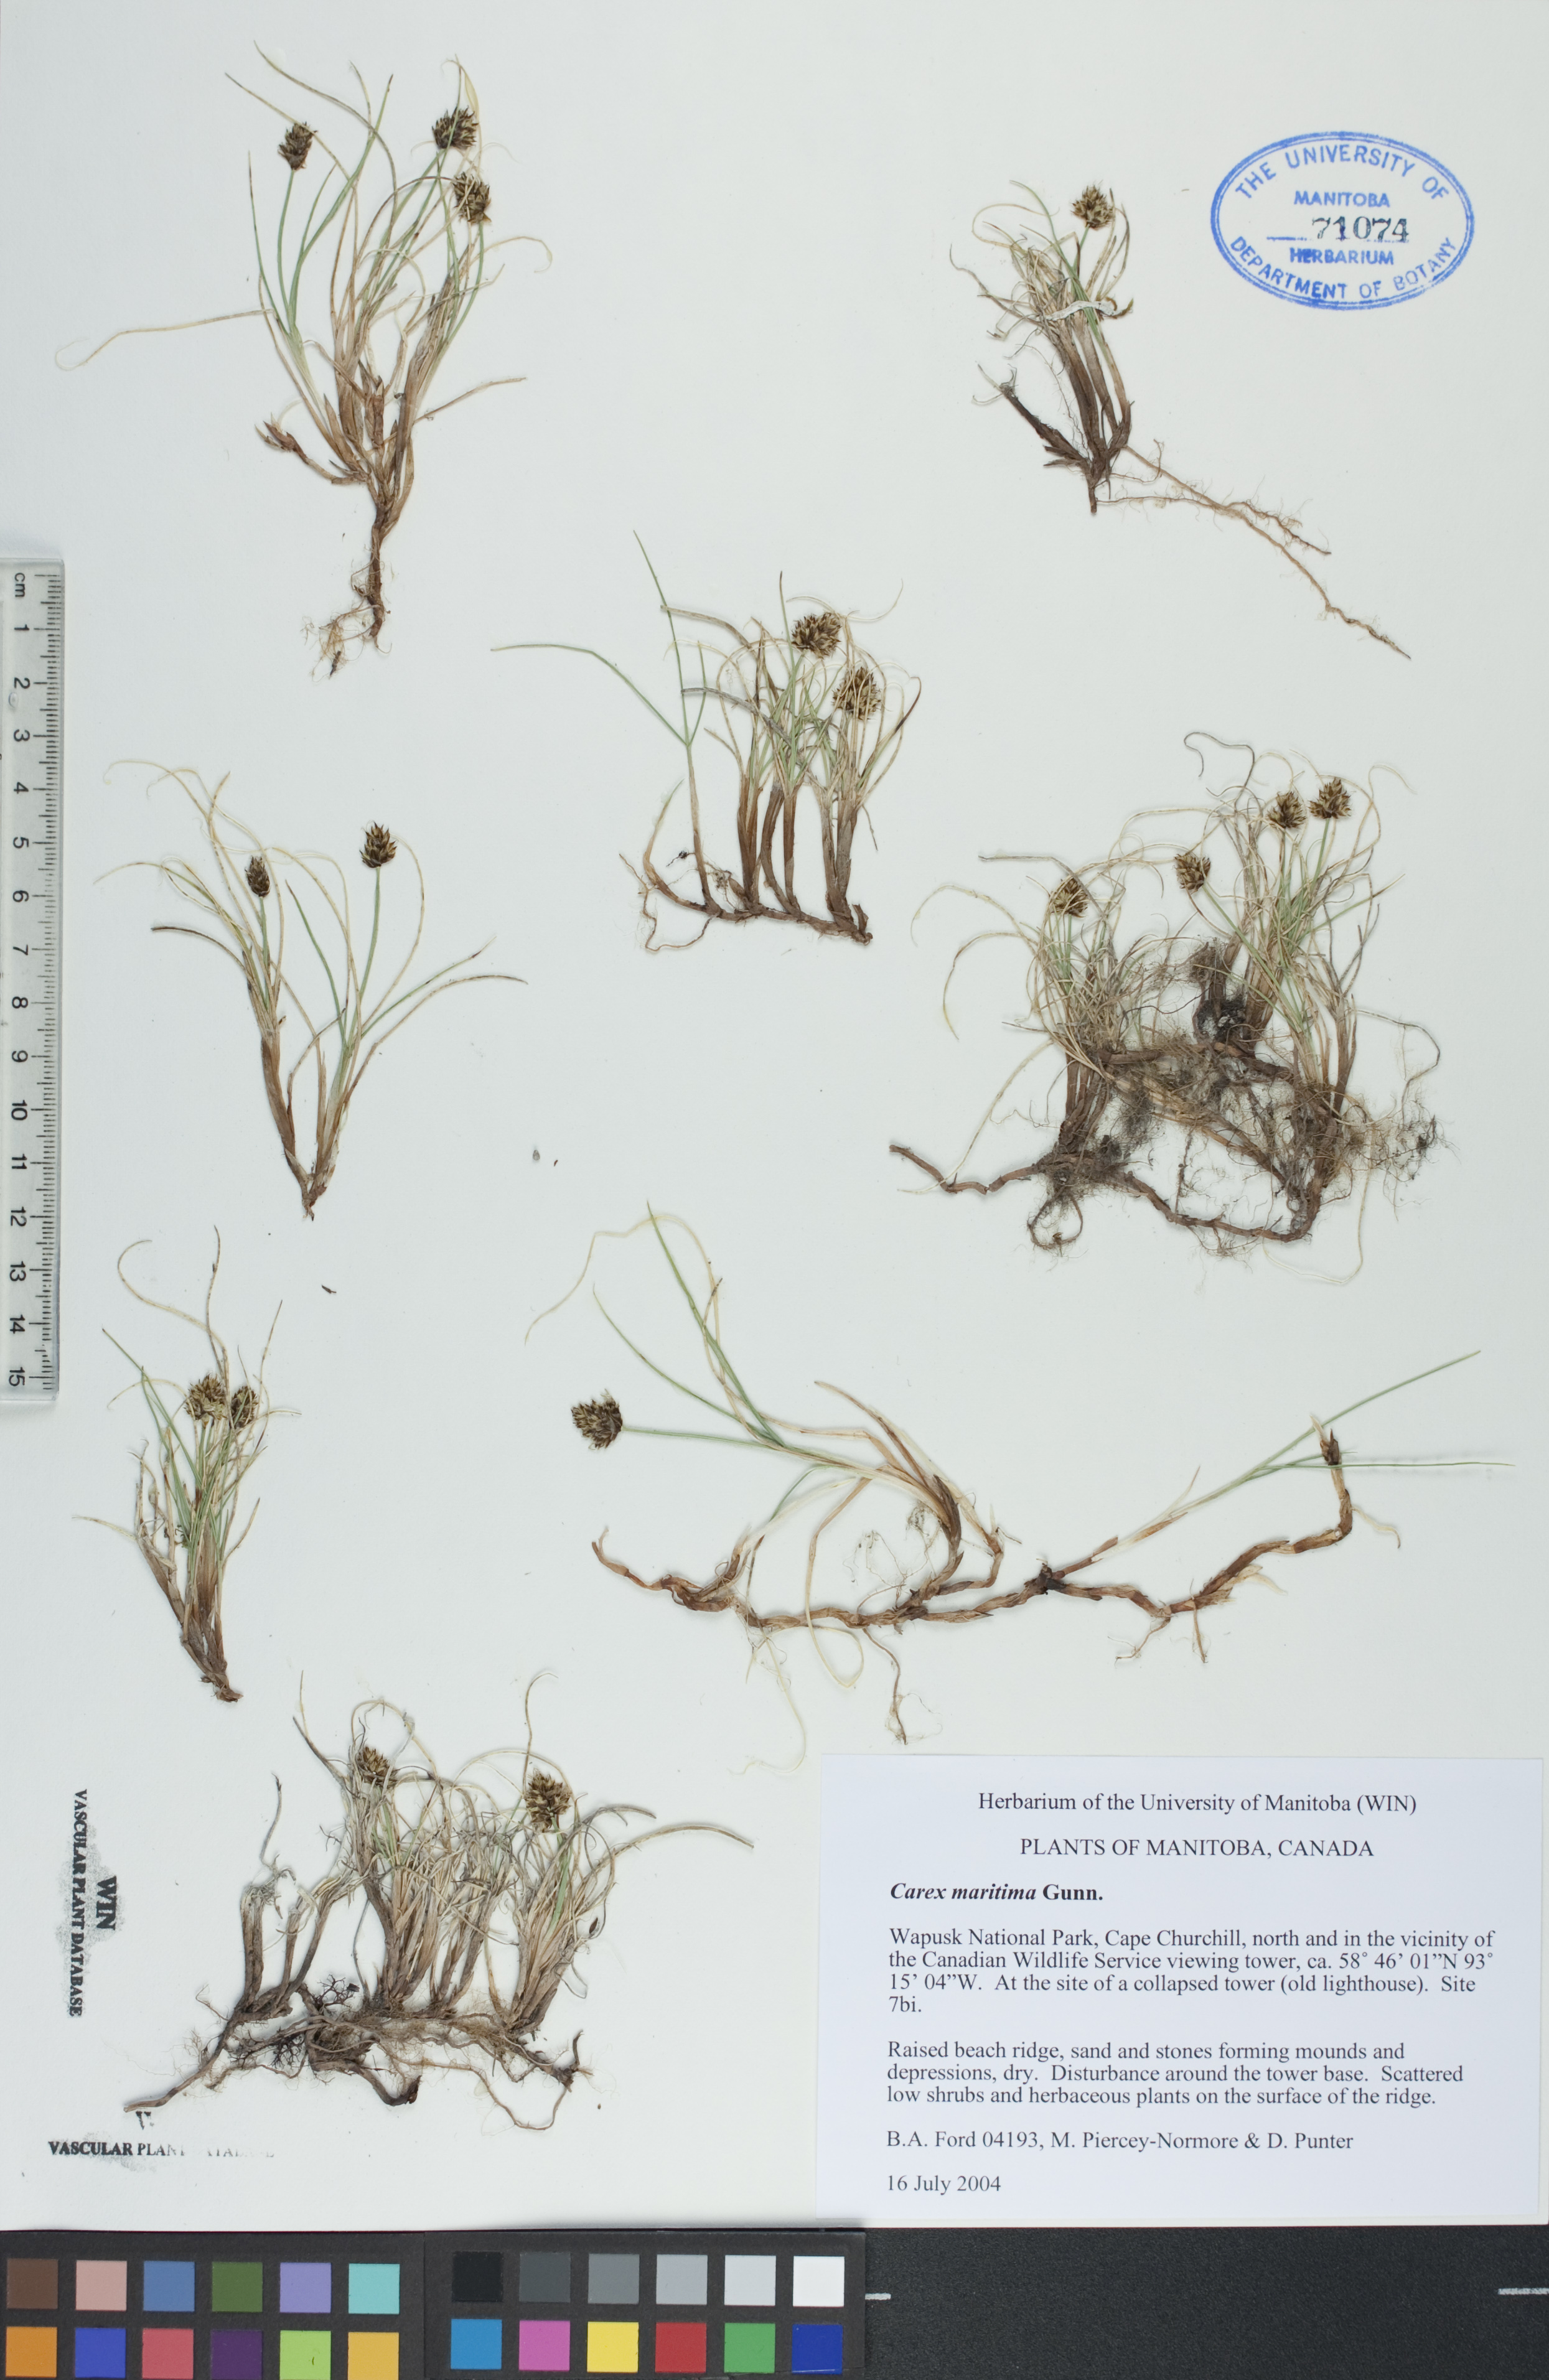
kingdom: Plantae
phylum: Tracheophyta
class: Liliopsida
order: Poales
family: Cyperaceae
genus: Carex
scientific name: Carex maritima
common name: Curved sedge
